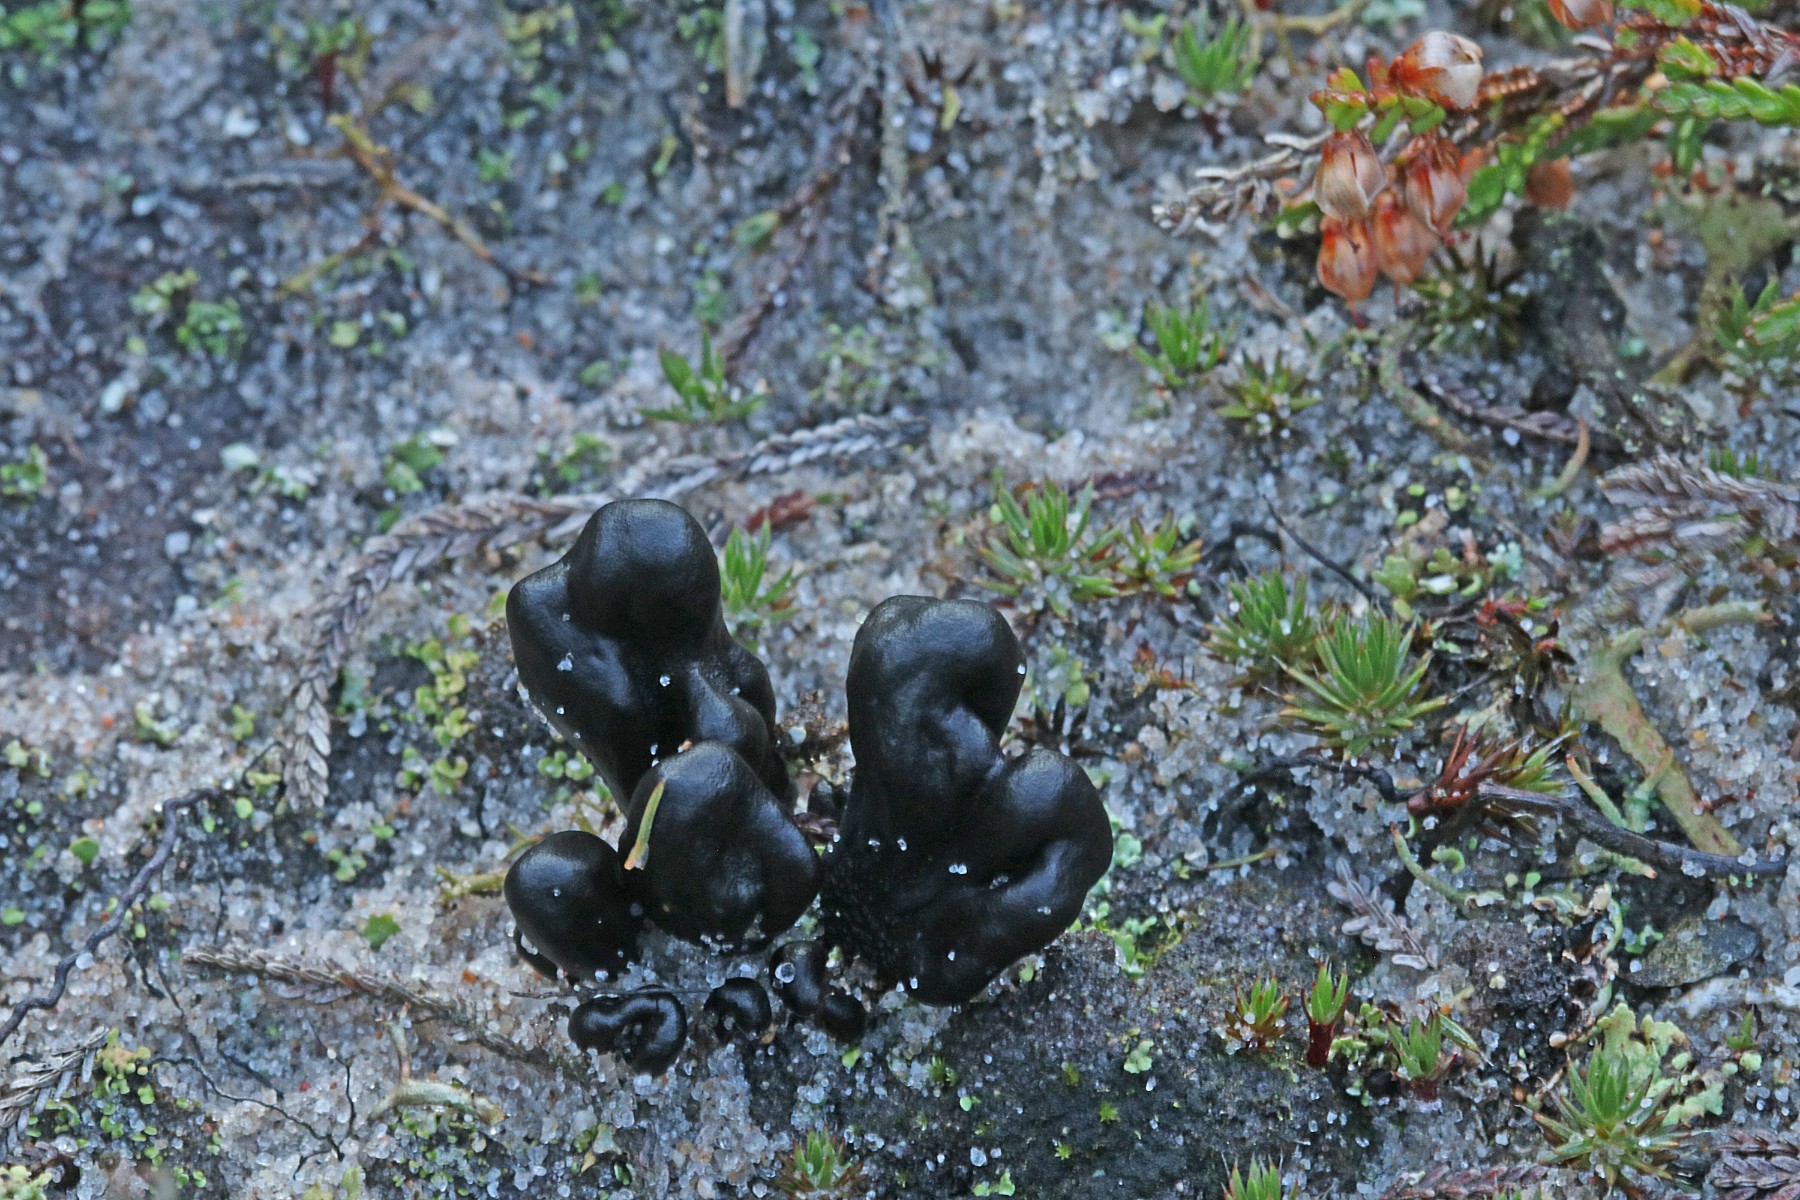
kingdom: Fungi
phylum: Ascomycota
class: Geoglossomycetes
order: Geoglossales
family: Geoglossaceae
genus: Sabuloglossum
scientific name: Sabuloglossum arenarium
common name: klit-jordtunge
